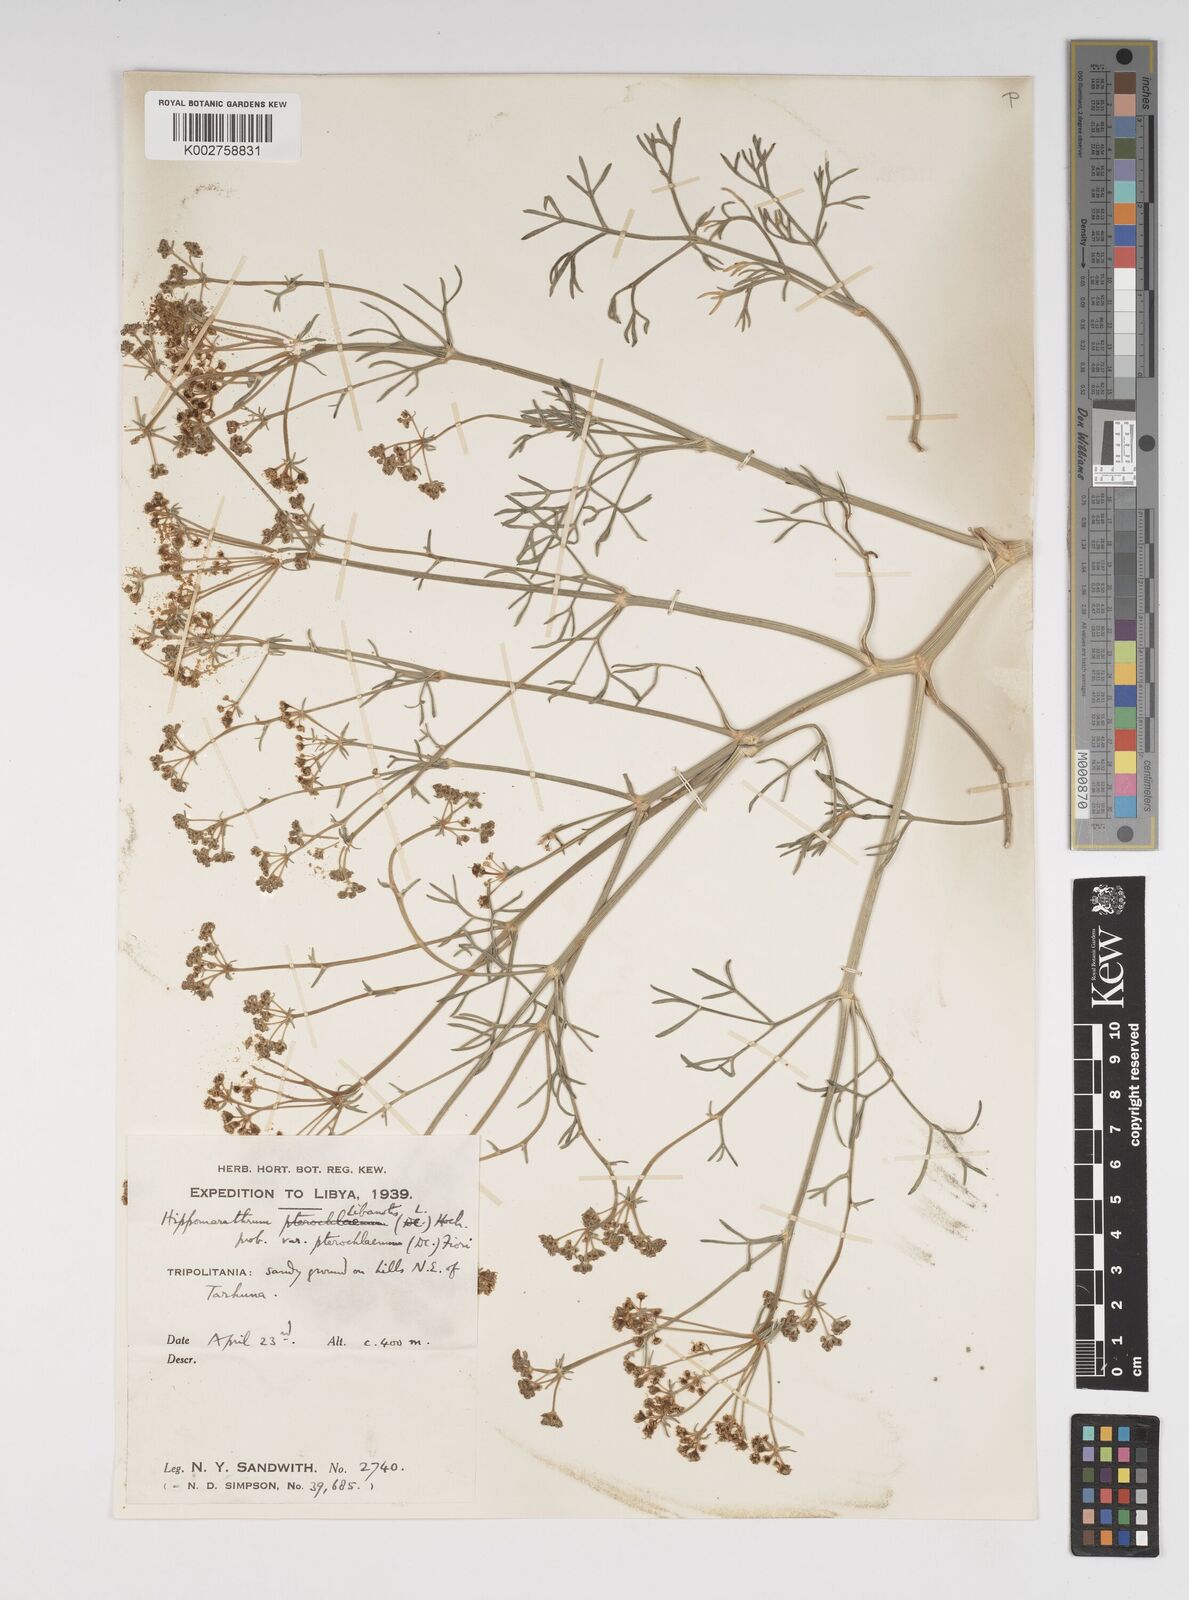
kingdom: Plantae
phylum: Tracheophyta
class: Magnoliopsida
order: Apiales
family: Apiaceae
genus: Cachrys
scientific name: Cachrys sicula
